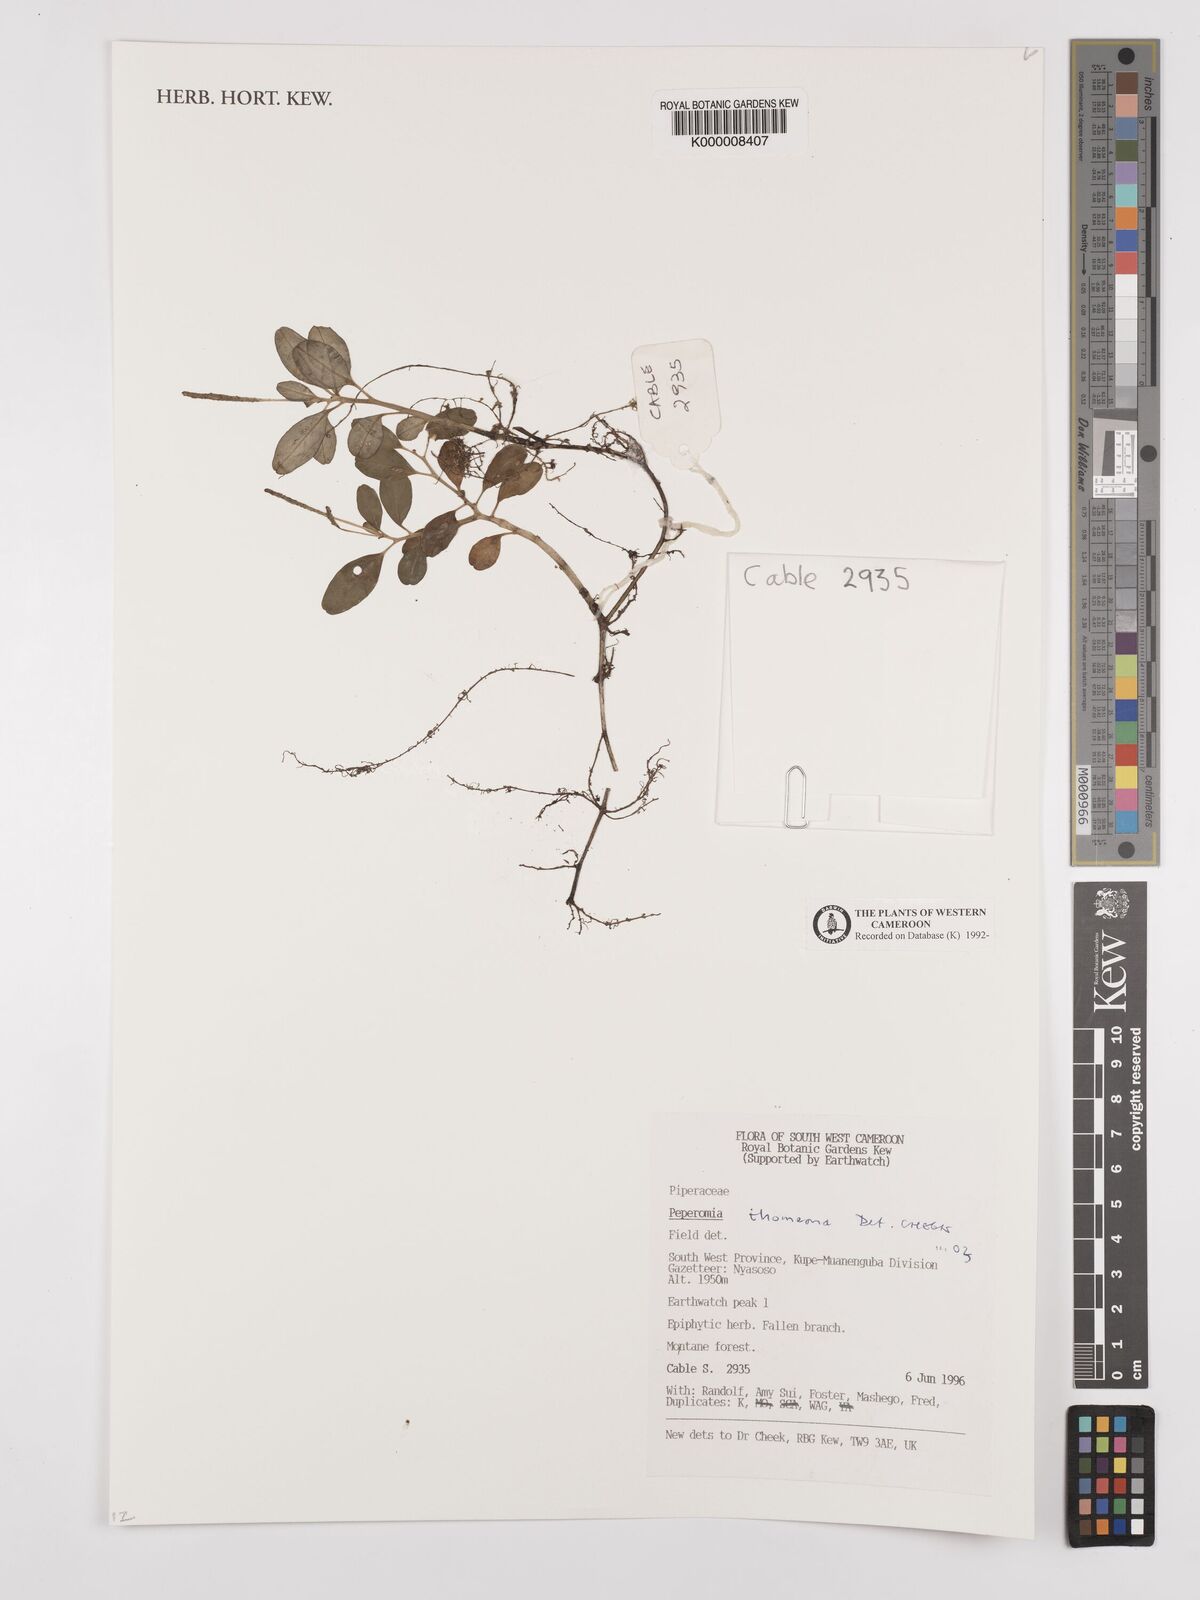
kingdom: Plantae
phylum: Tracheophyta
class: Magnoliopsida
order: Piperales
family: Piperaceae
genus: Peperomia
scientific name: Peperomia thomeana
